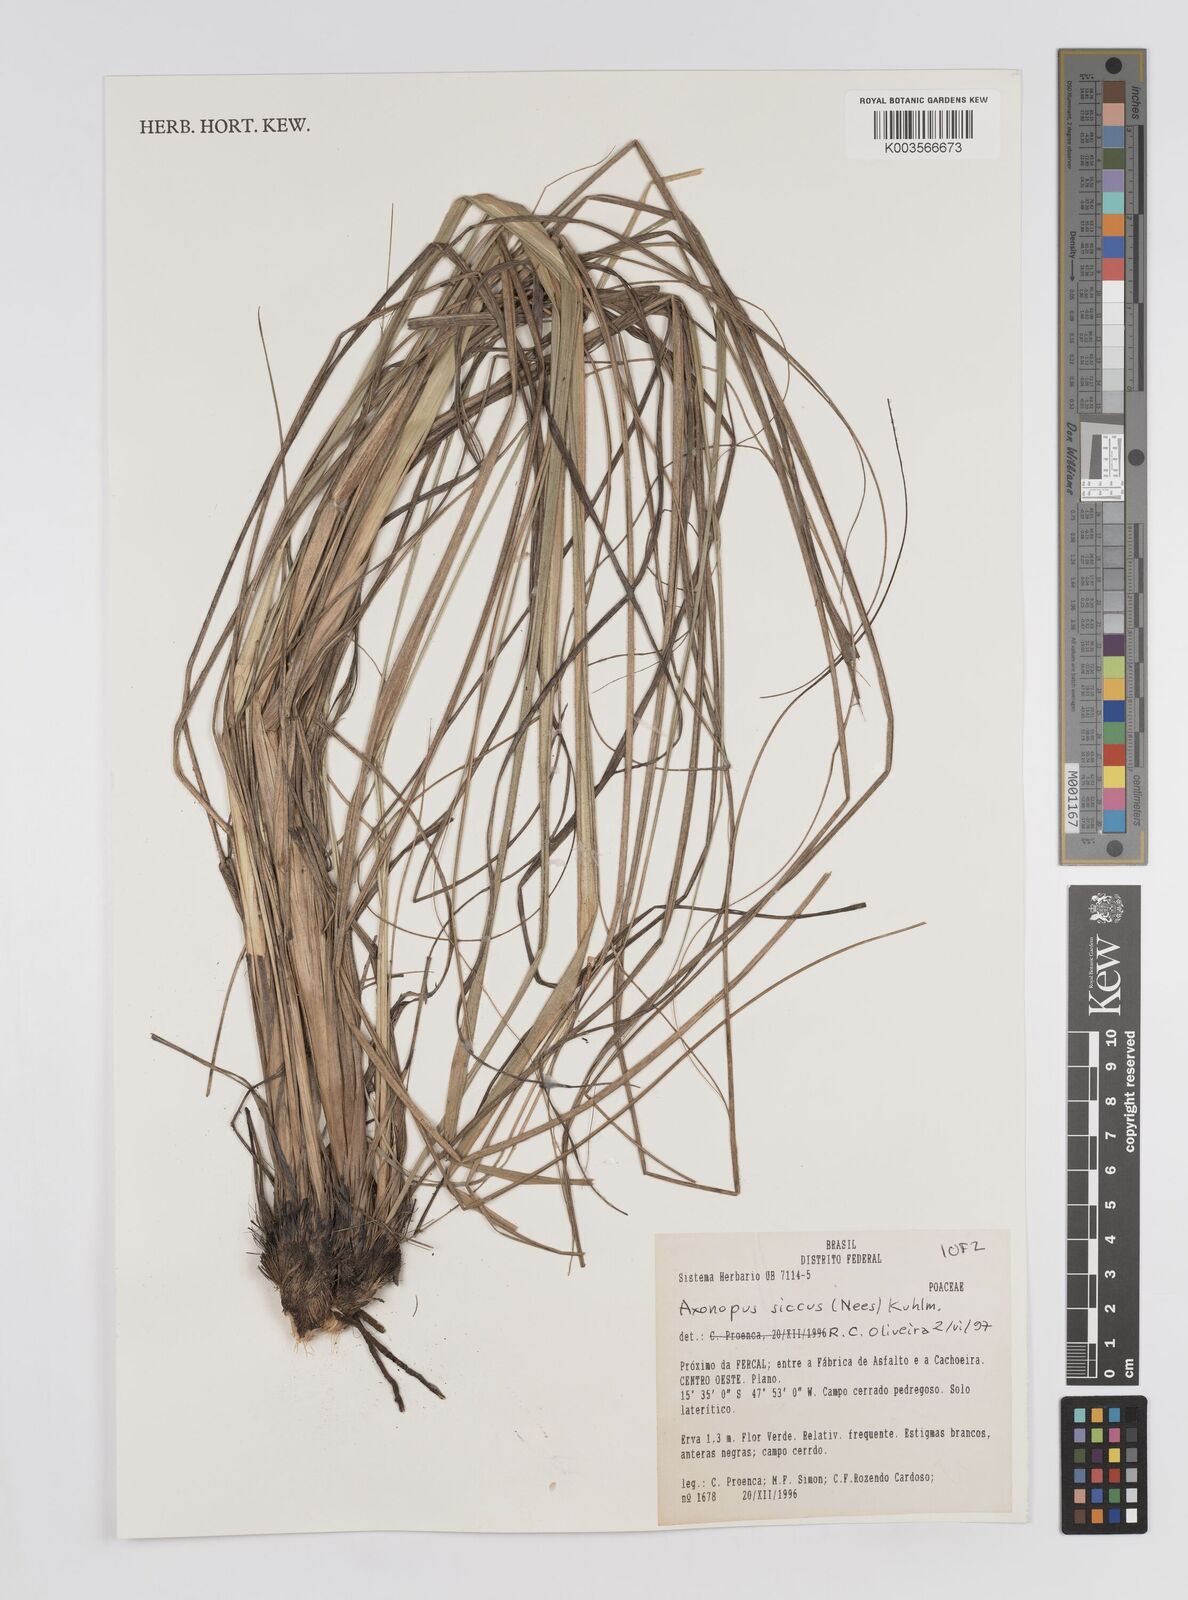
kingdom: Plantae
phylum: Tracheophyta
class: Liliopsida
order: Poales
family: Poaceae
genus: Axonopus
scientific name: Axonopus siccus
